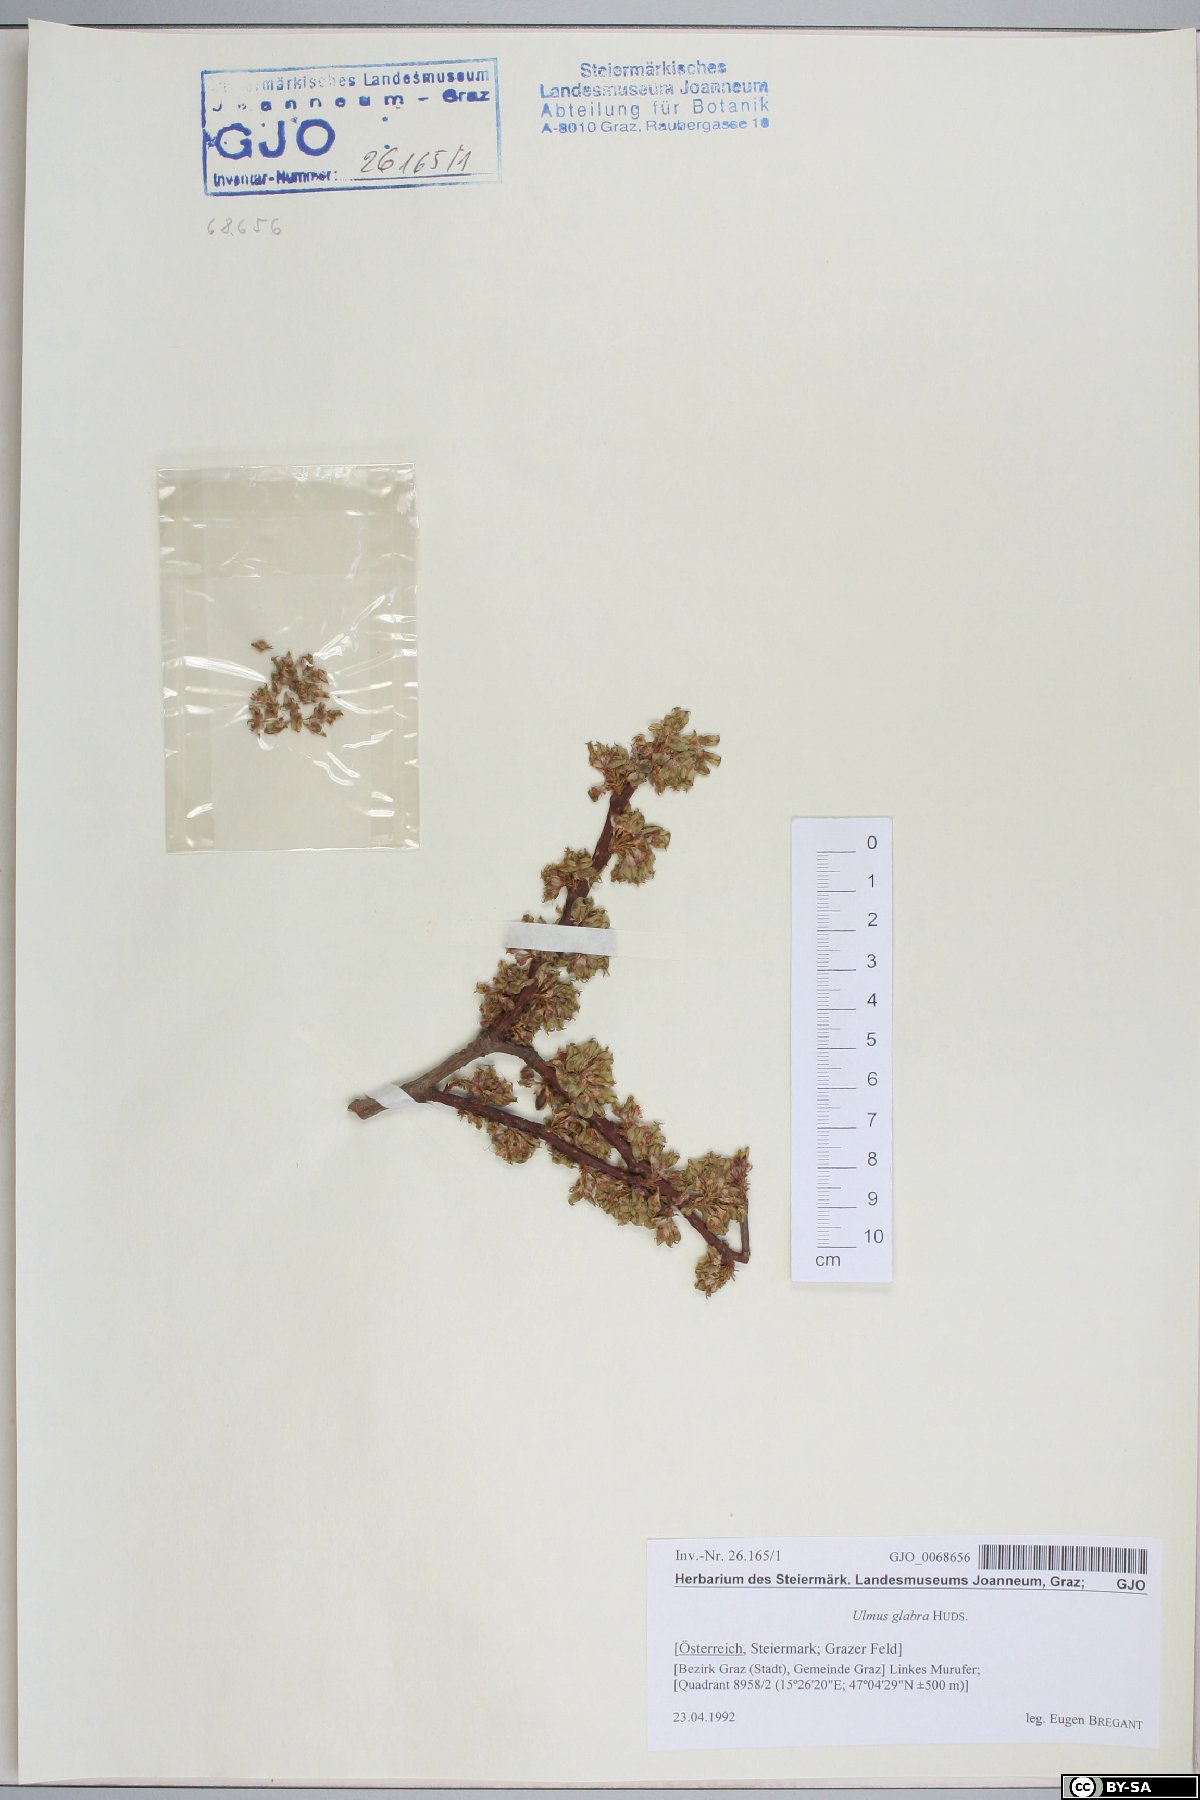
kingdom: Plantae
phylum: Tracheophyta
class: Magnoliopsida
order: Rosales
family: Ulmaceae
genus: Ulmus
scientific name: Ulmus glabra
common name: Wych elm
